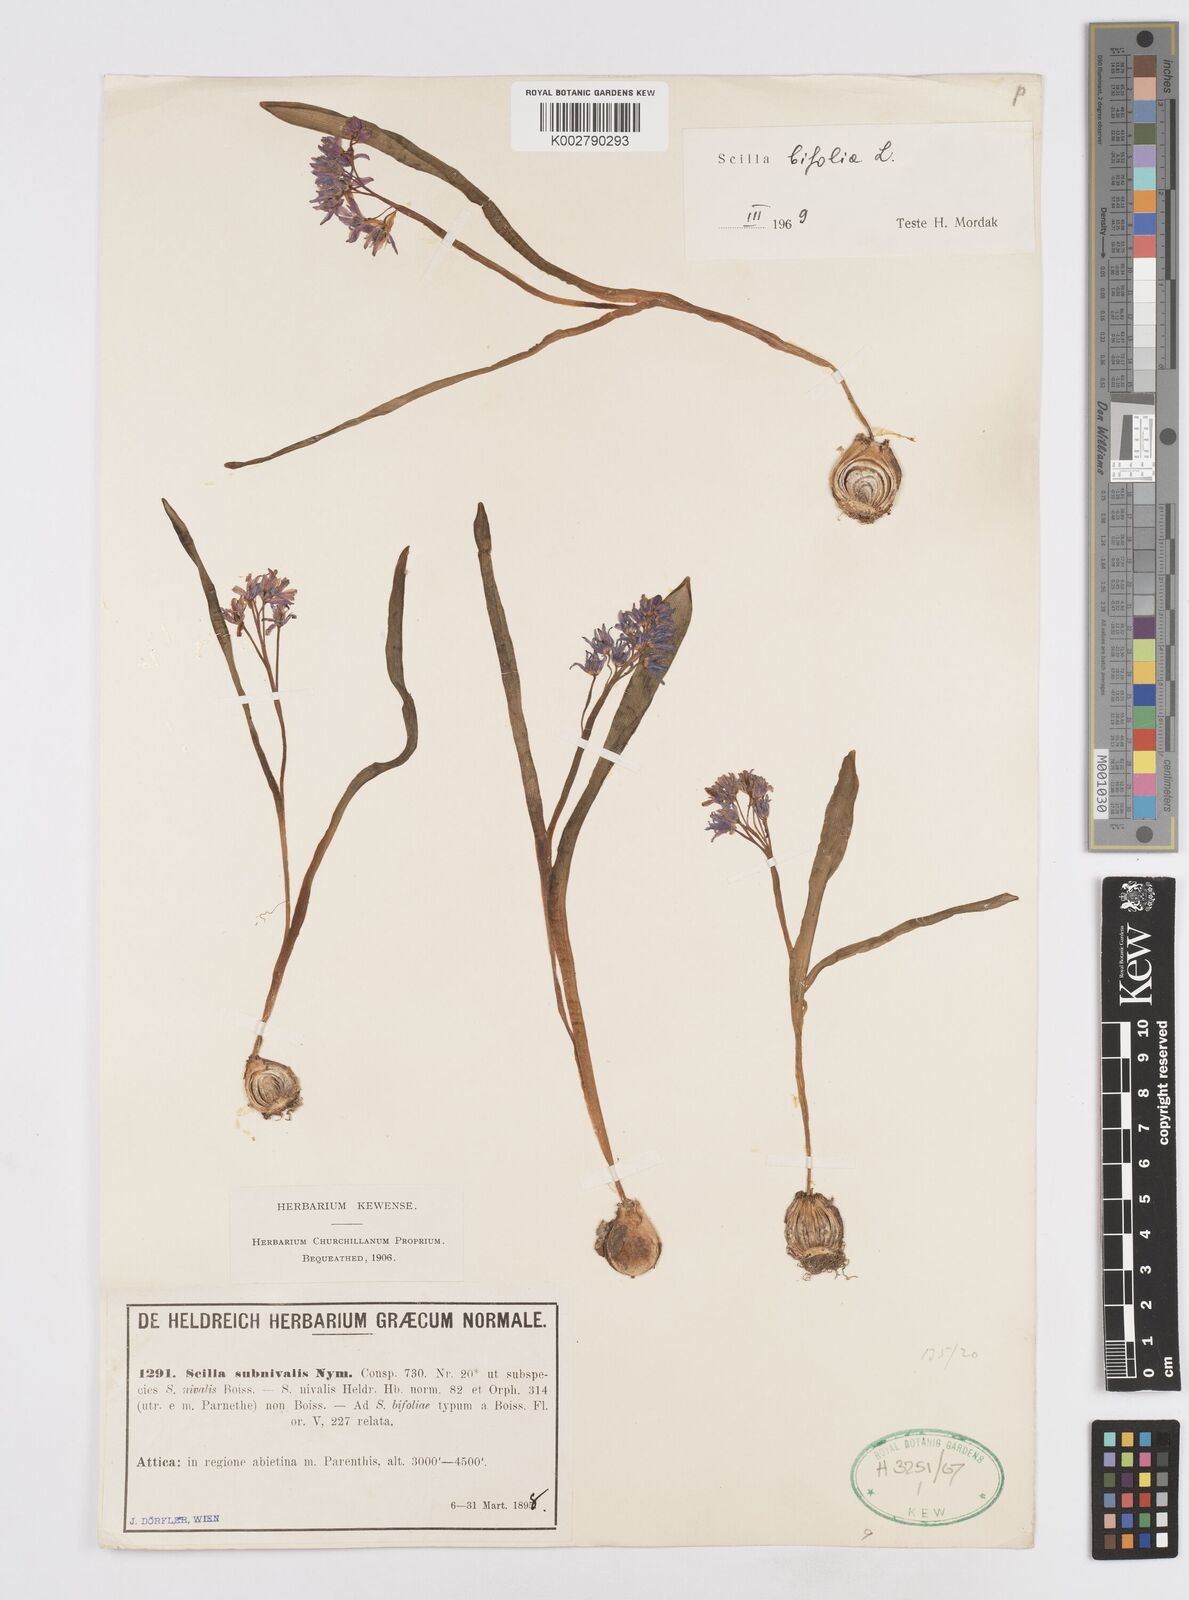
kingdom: Plantae
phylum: Tracheophyta
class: Liliopsida
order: Asparagales
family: Asparagaceae
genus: Scilla
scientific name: Scilla nivalis
